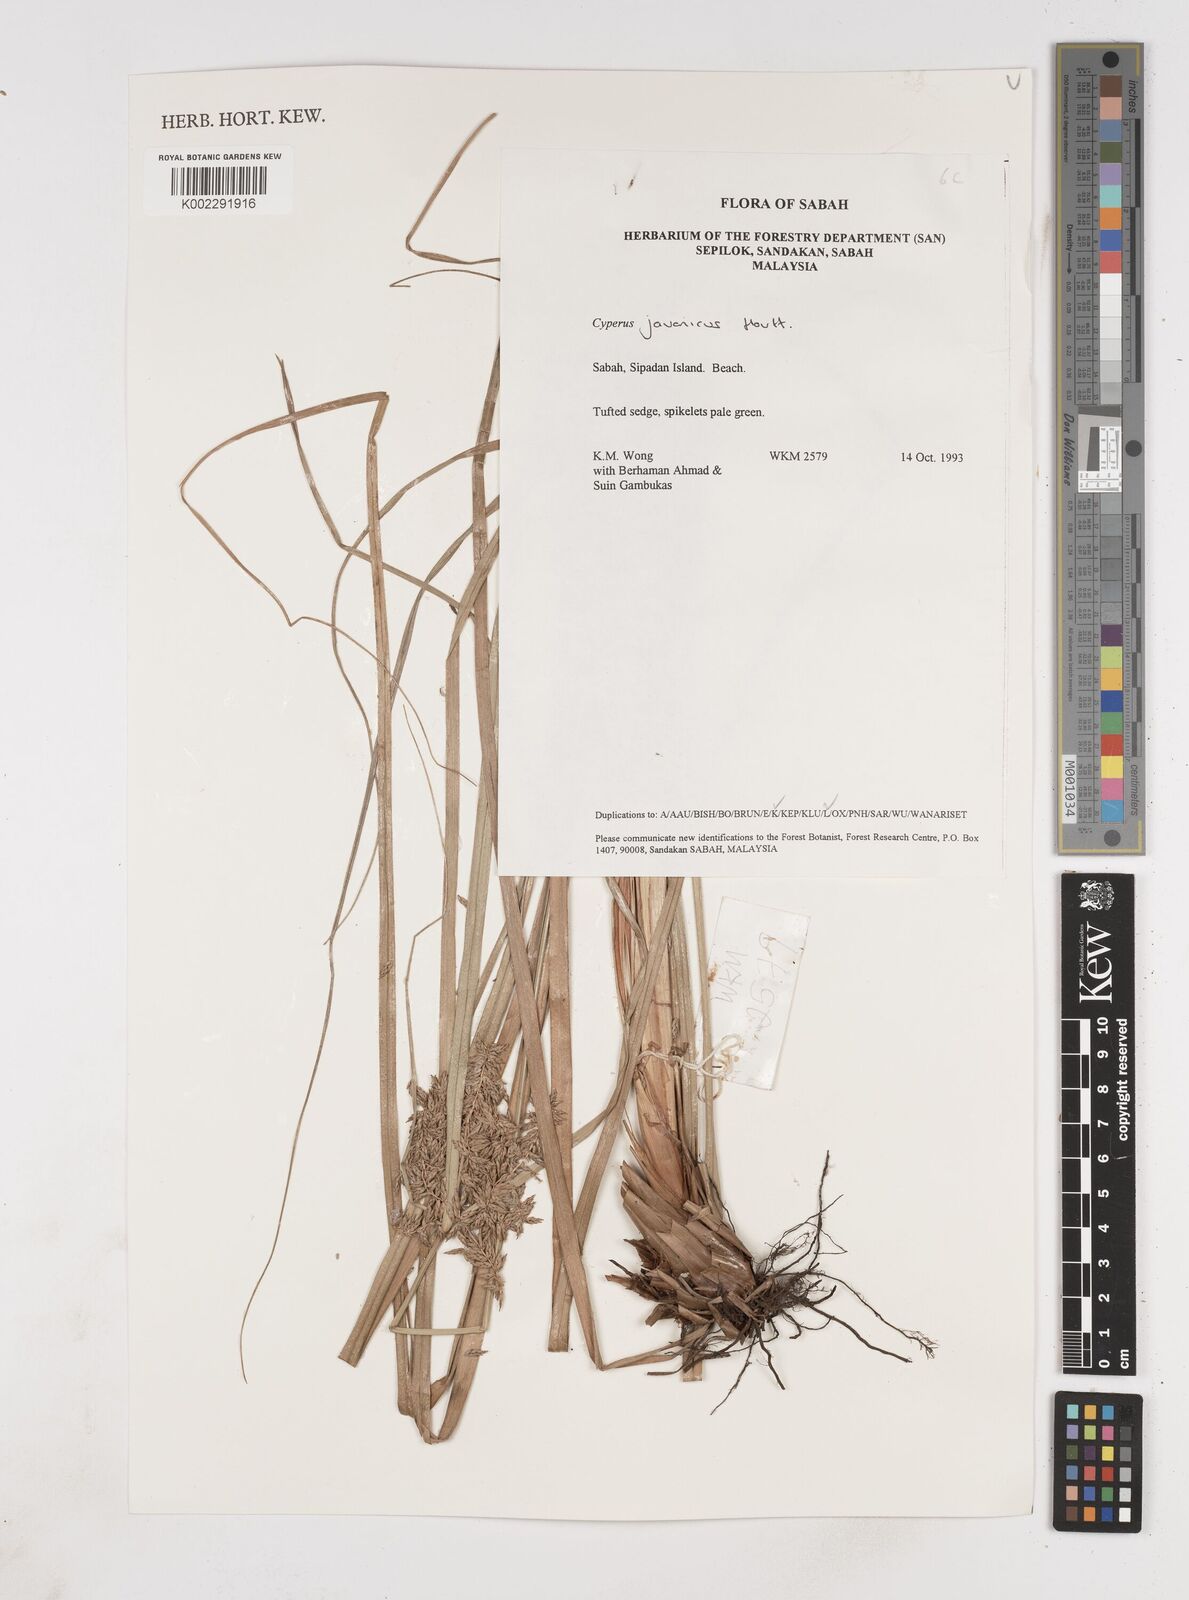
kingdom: Plantae
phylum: Tracheophyta
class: Liliopsida
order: Poales
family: Cyperaceae
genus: Cyperus
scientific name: Cyperus javanicus
